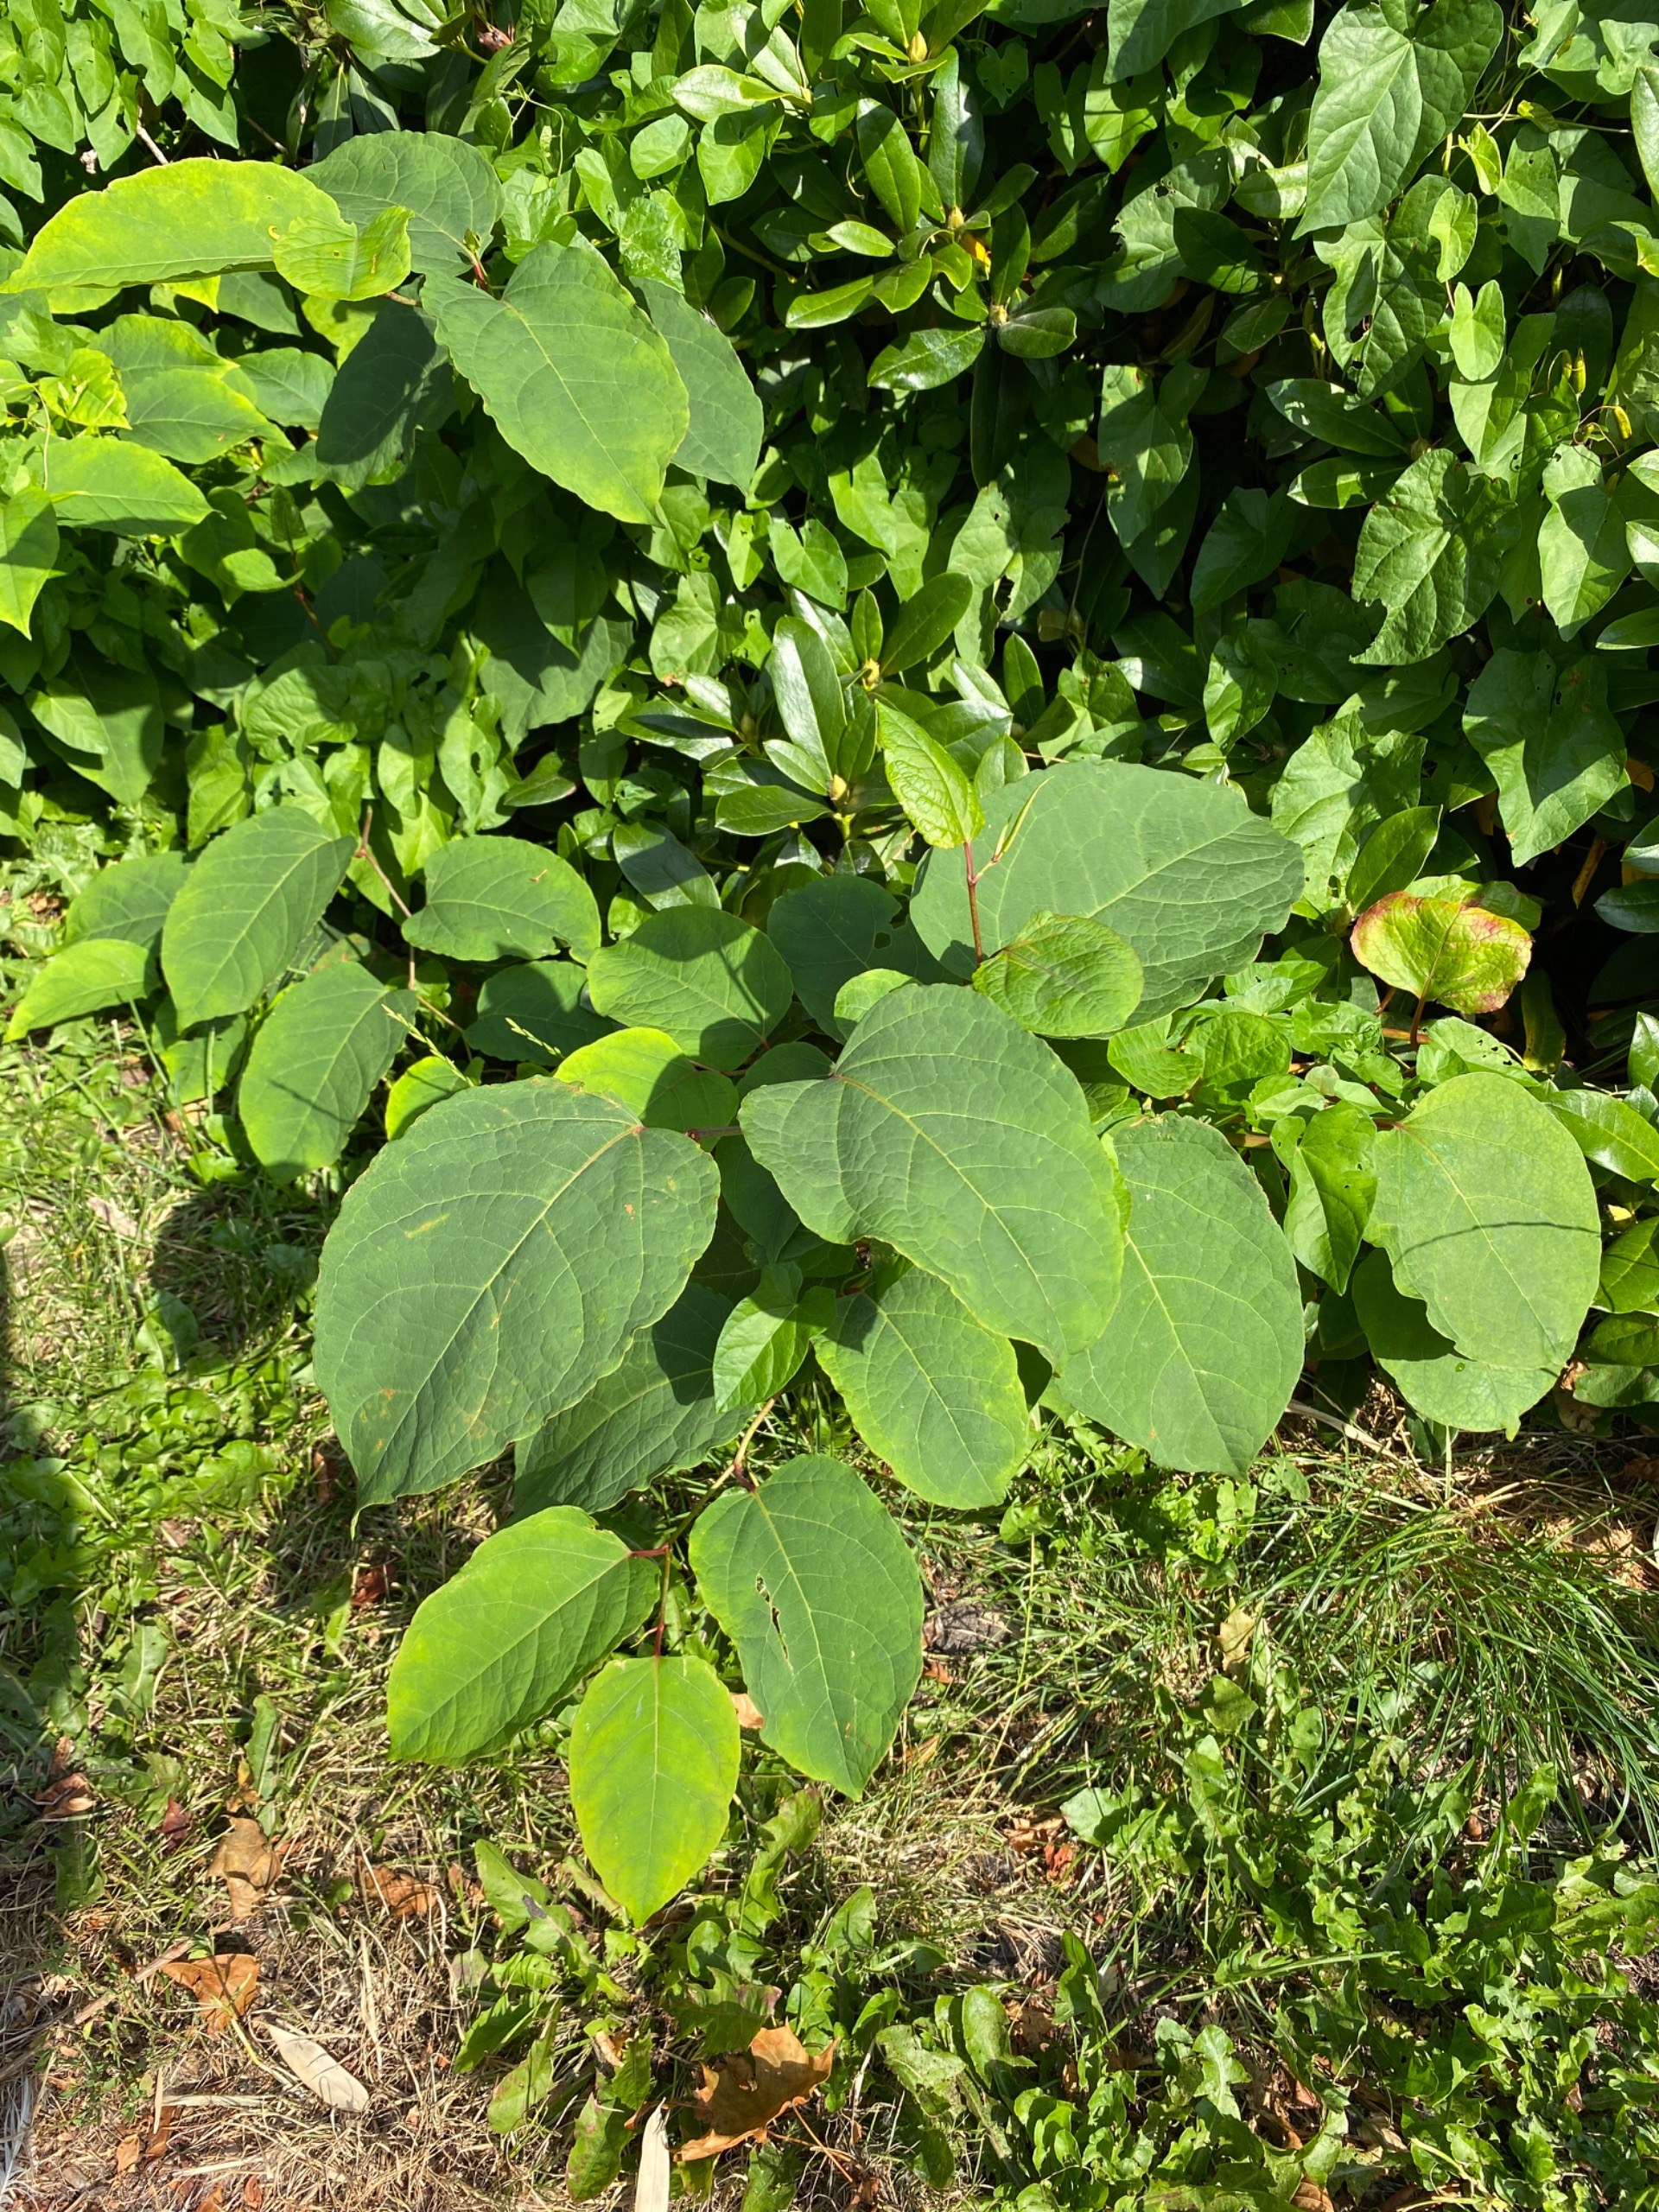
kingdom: Plantae
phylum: Tracheophyta
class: Magnoliopsida
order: Caryophyllales
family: Polygonaceae
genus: Reynoutria
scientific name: Reynoutria bohemica
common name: Hybrid-pileurt
